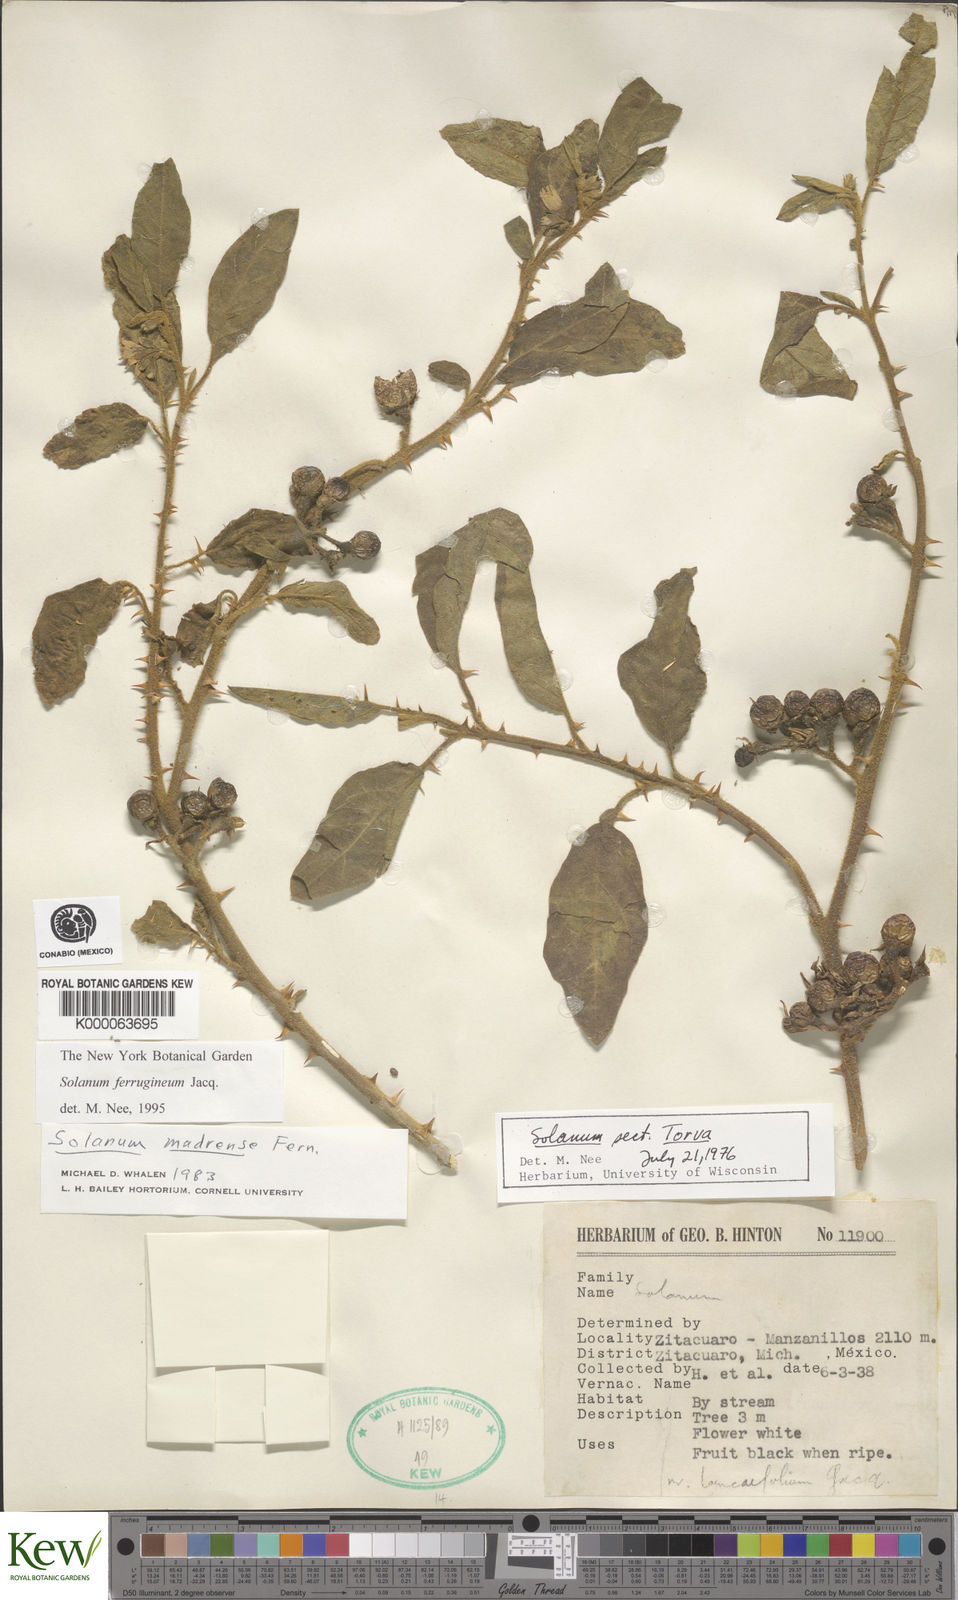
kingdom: Plantae
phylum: Tracheophyta
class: Magnoliopsida
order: Solanales
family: Solanaceae
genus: Solanum
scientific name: Solanum
